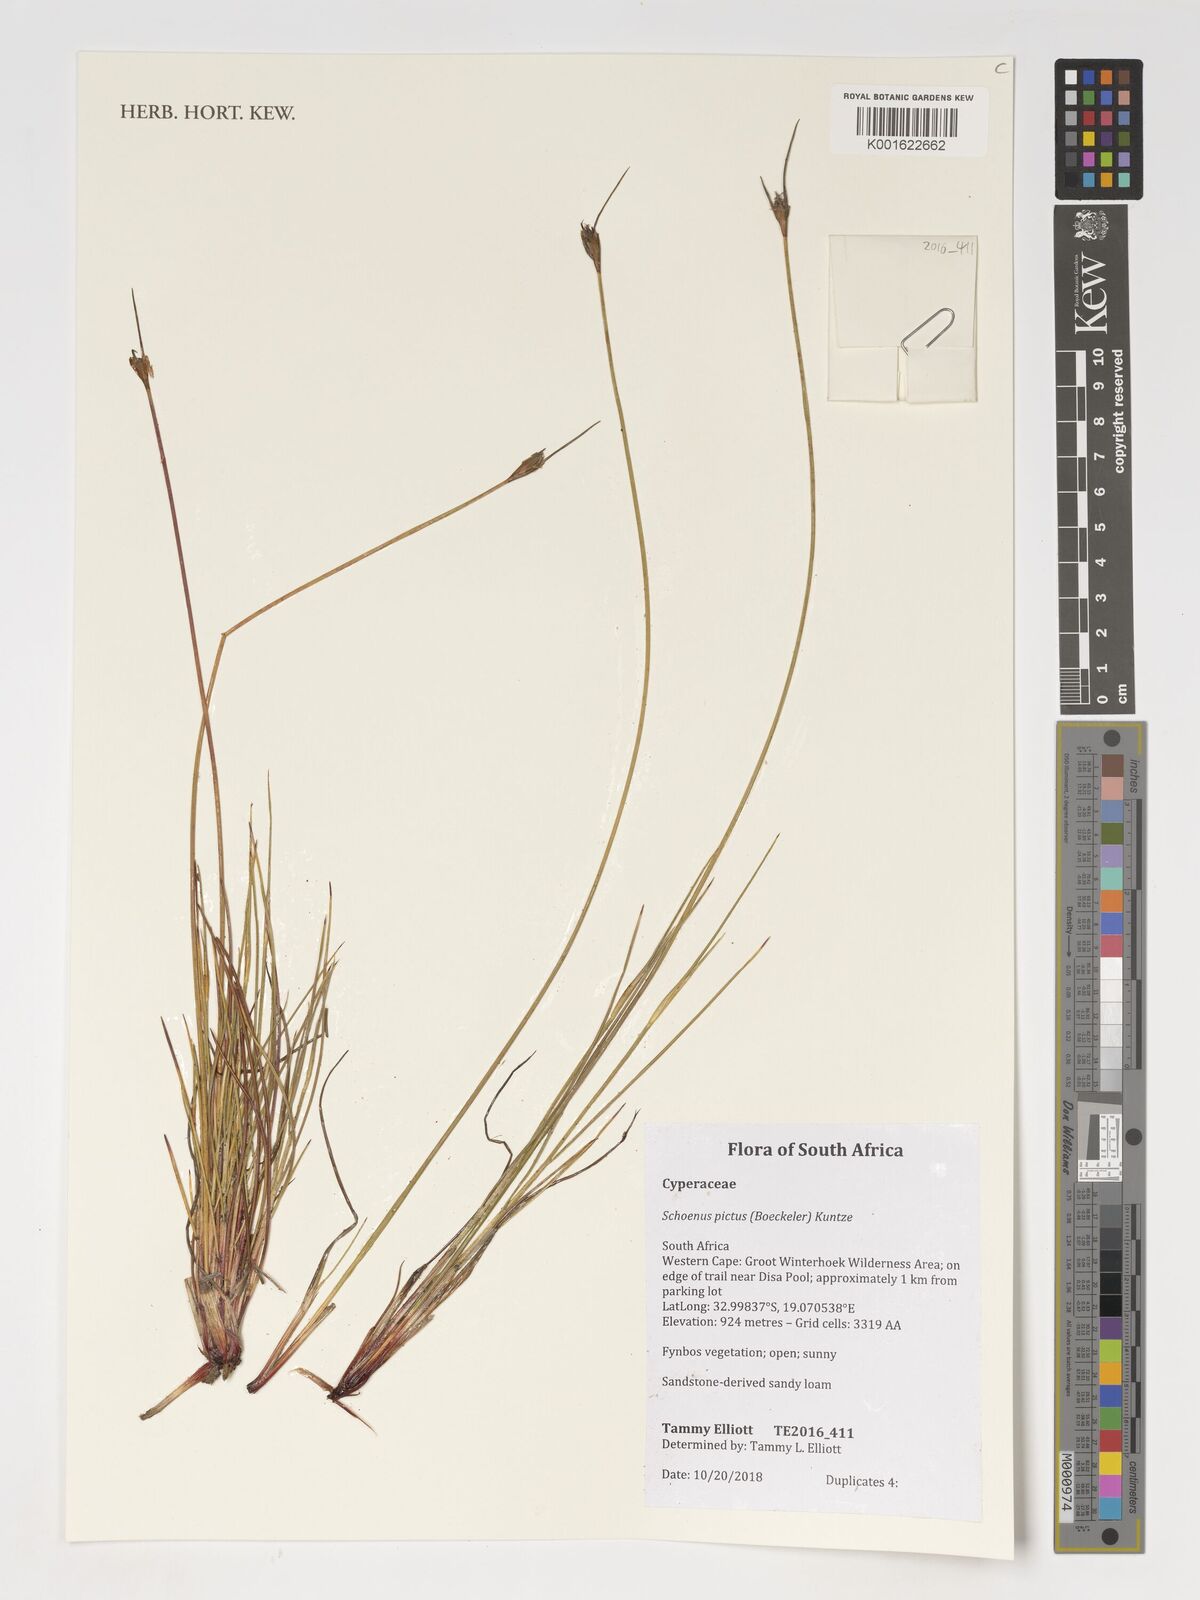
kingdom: Plantae
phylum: Tracheophyta
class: Liliopsida
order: Poales
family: Cyperaceae
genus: Schoenus
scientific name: Schoenus pictus
